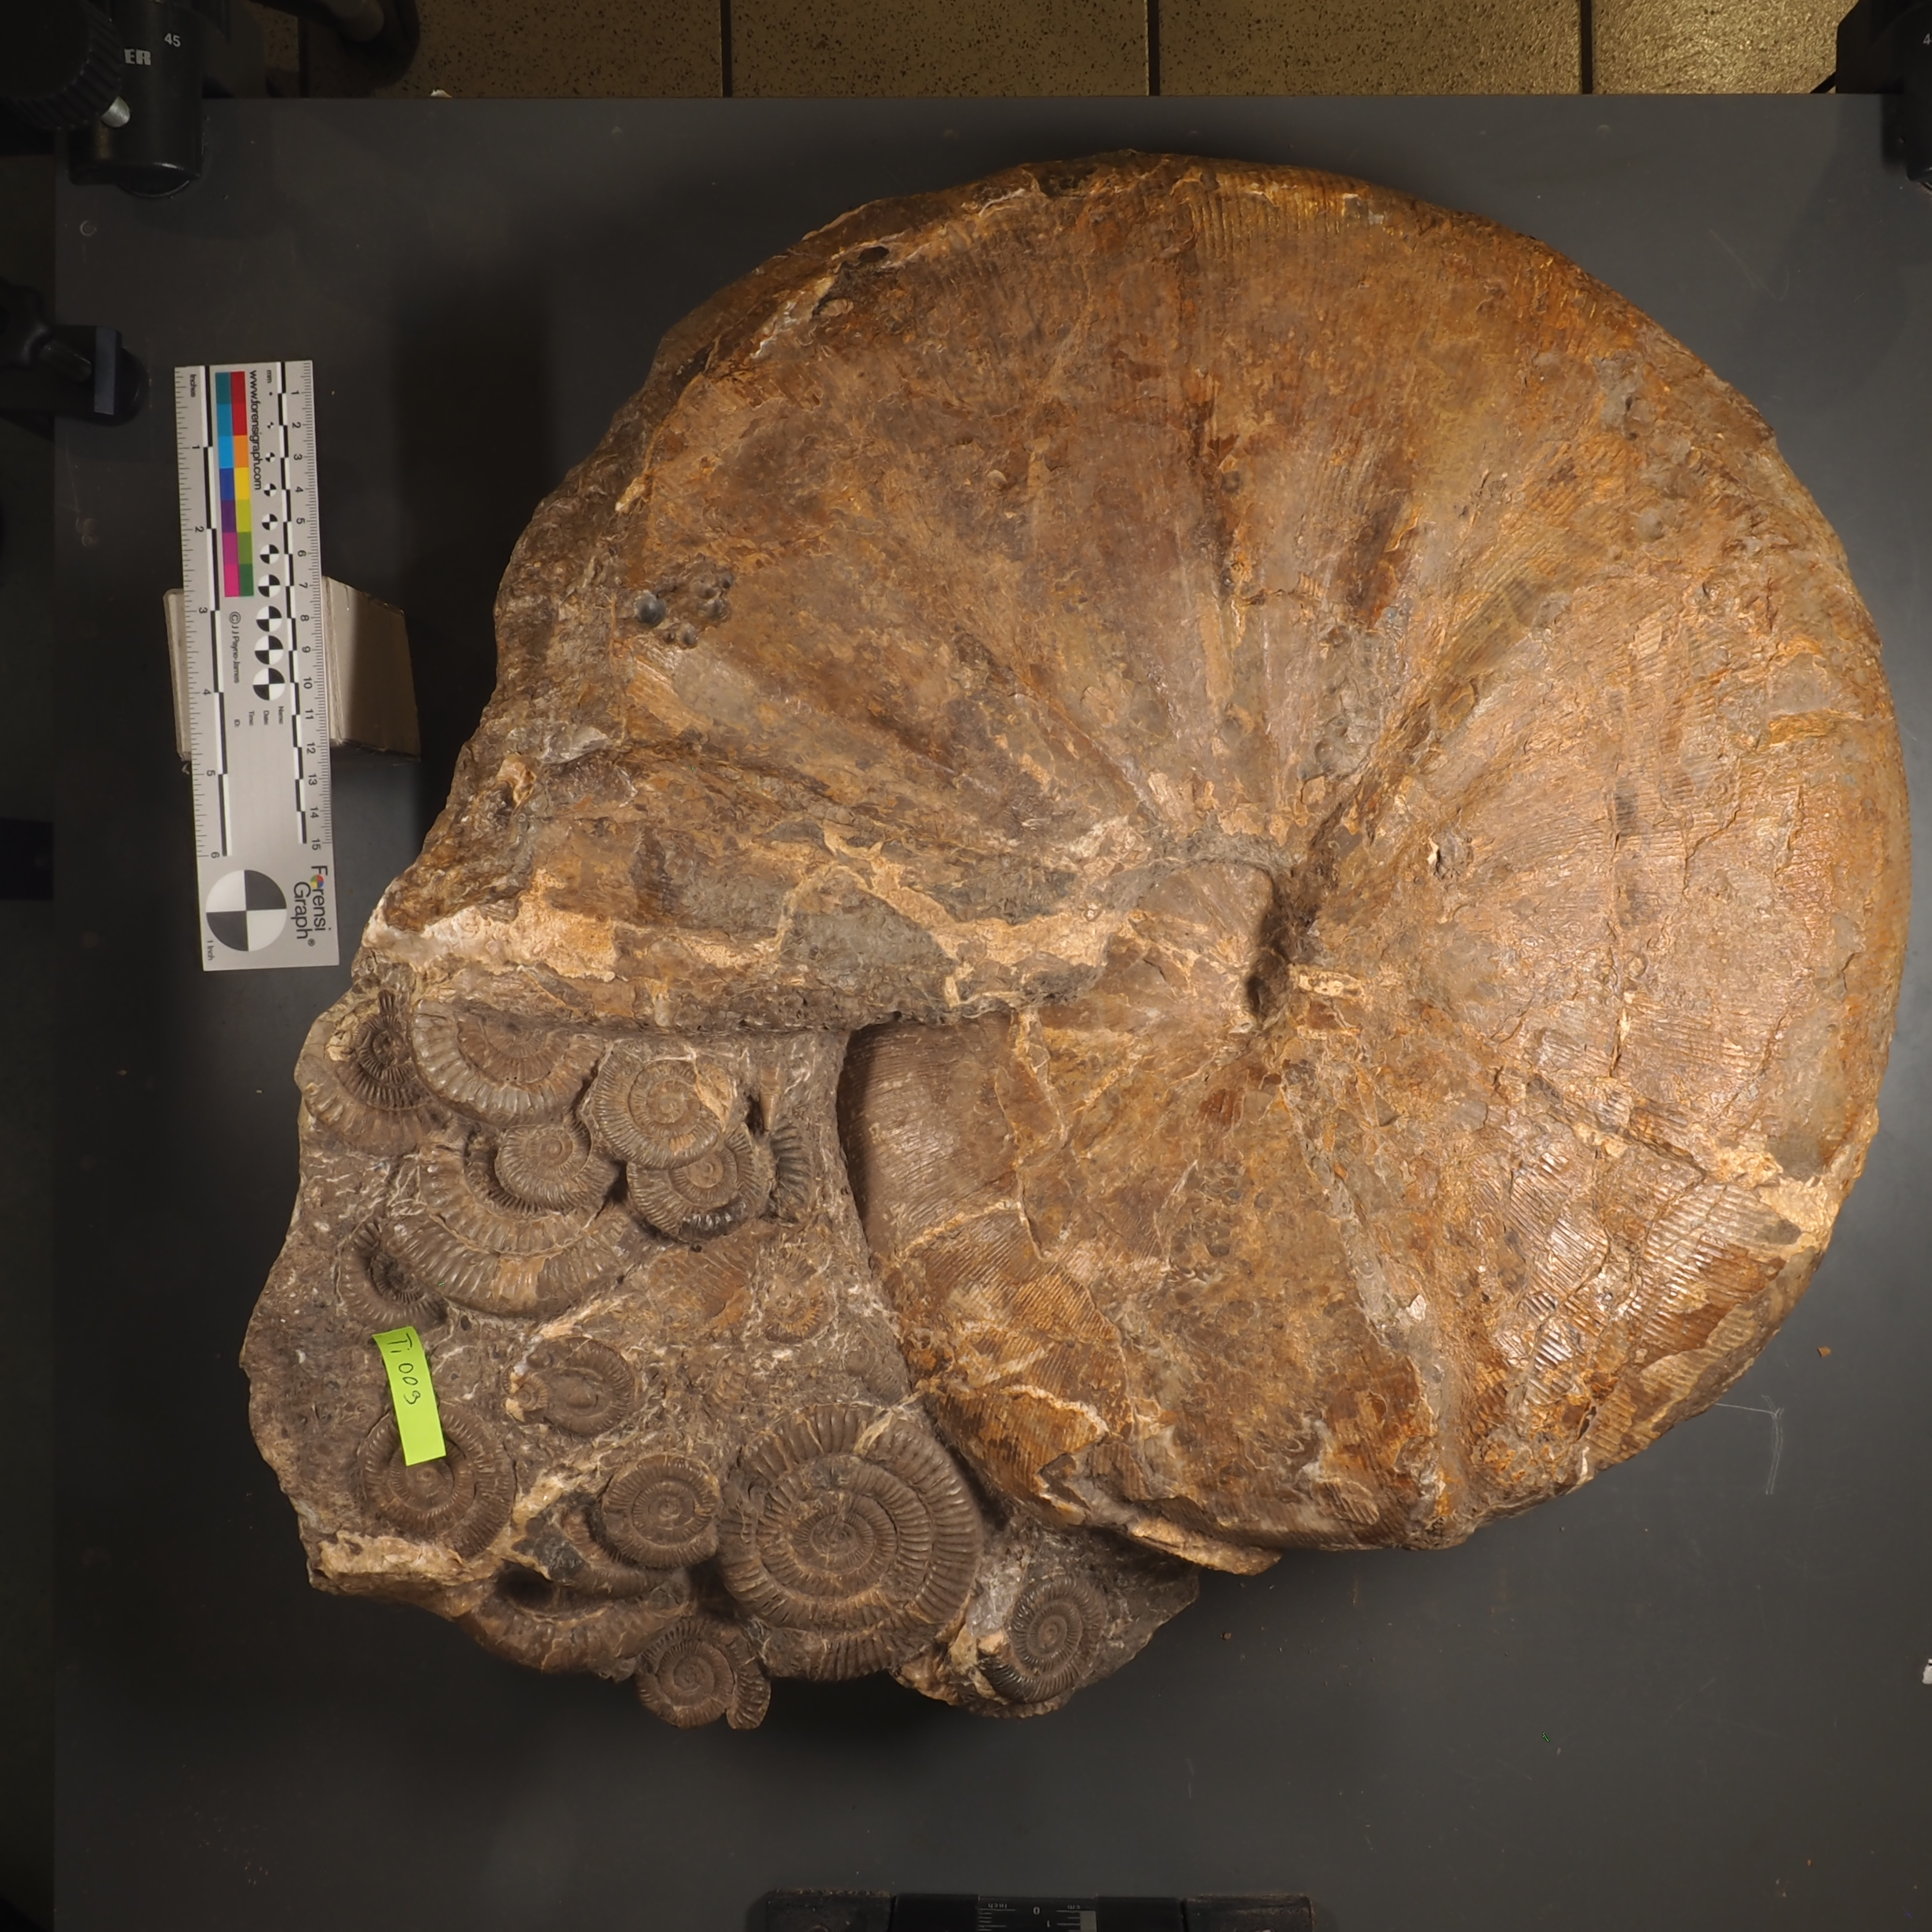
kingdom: Animalia
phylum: Mollusca
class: Cephalopoda
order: Phylloceratida
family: Phylloceratidae
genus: Phylloceras
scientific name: Phylloceras heterophyllum
